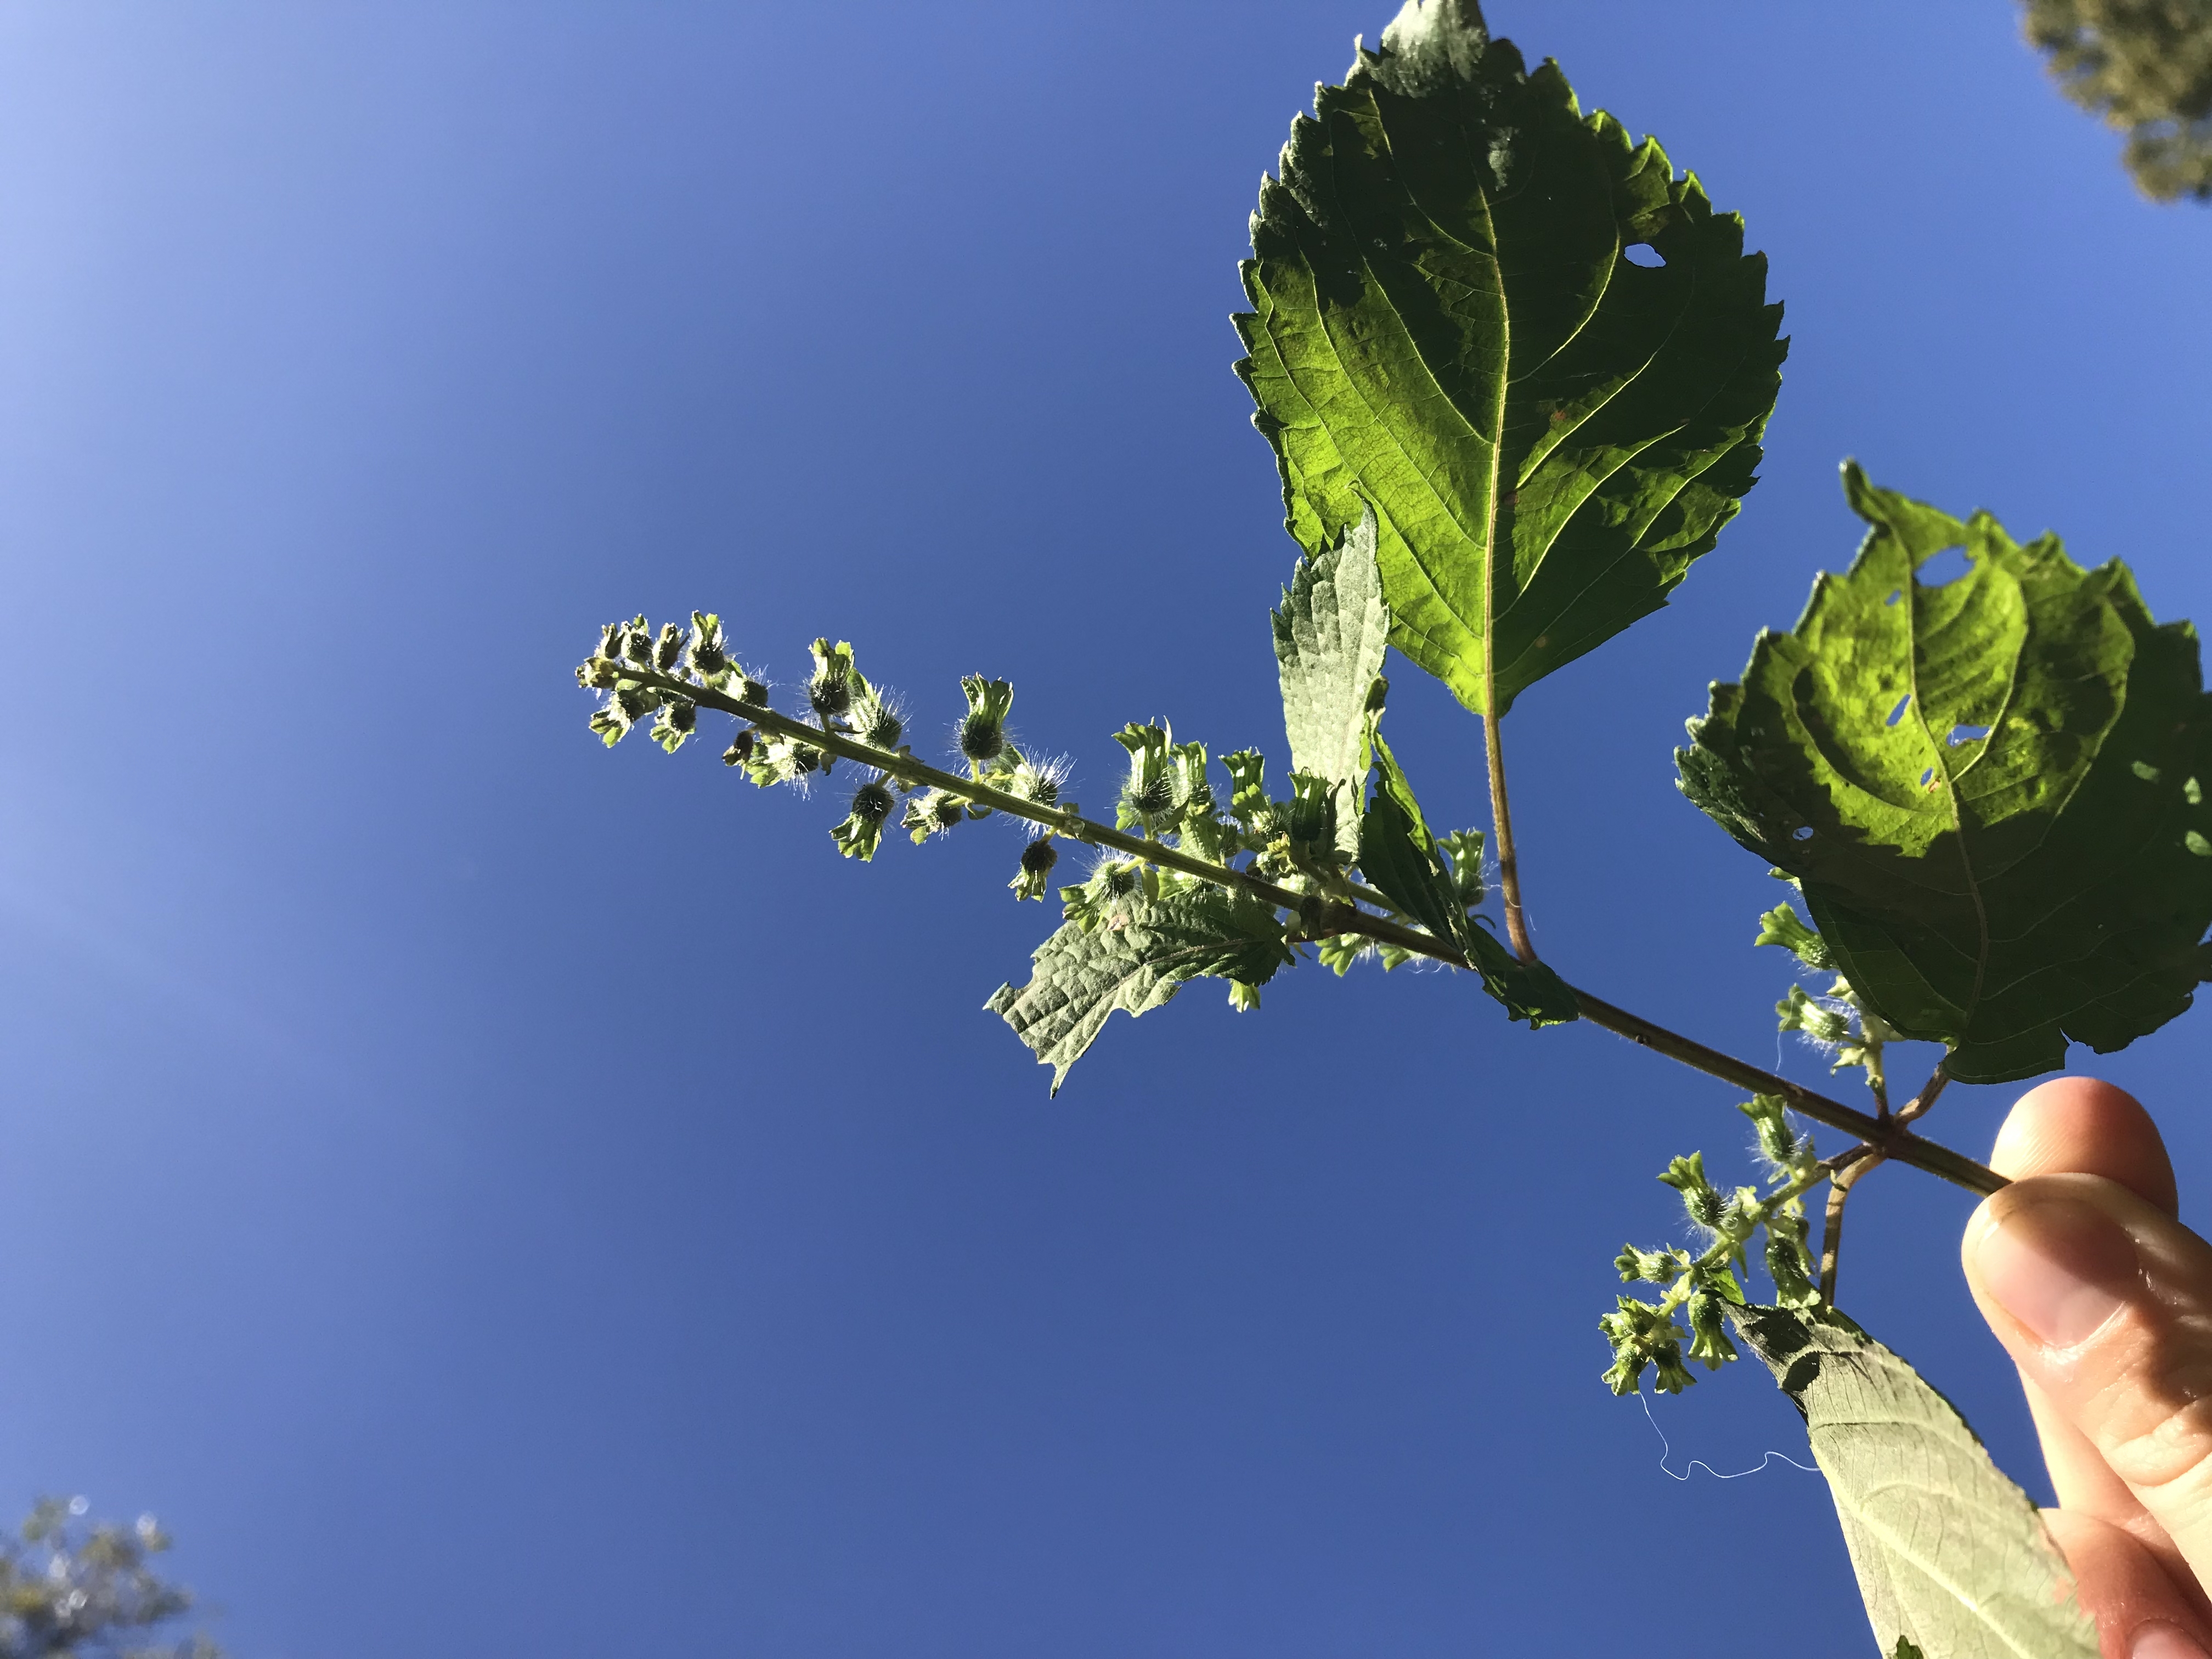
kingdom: Plantae
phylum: Tracheophyta
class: Magnoliopsida
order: Lamiales
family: Lamiaceae
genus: Perilla
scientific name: Perilla frutescens
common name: Perilla
